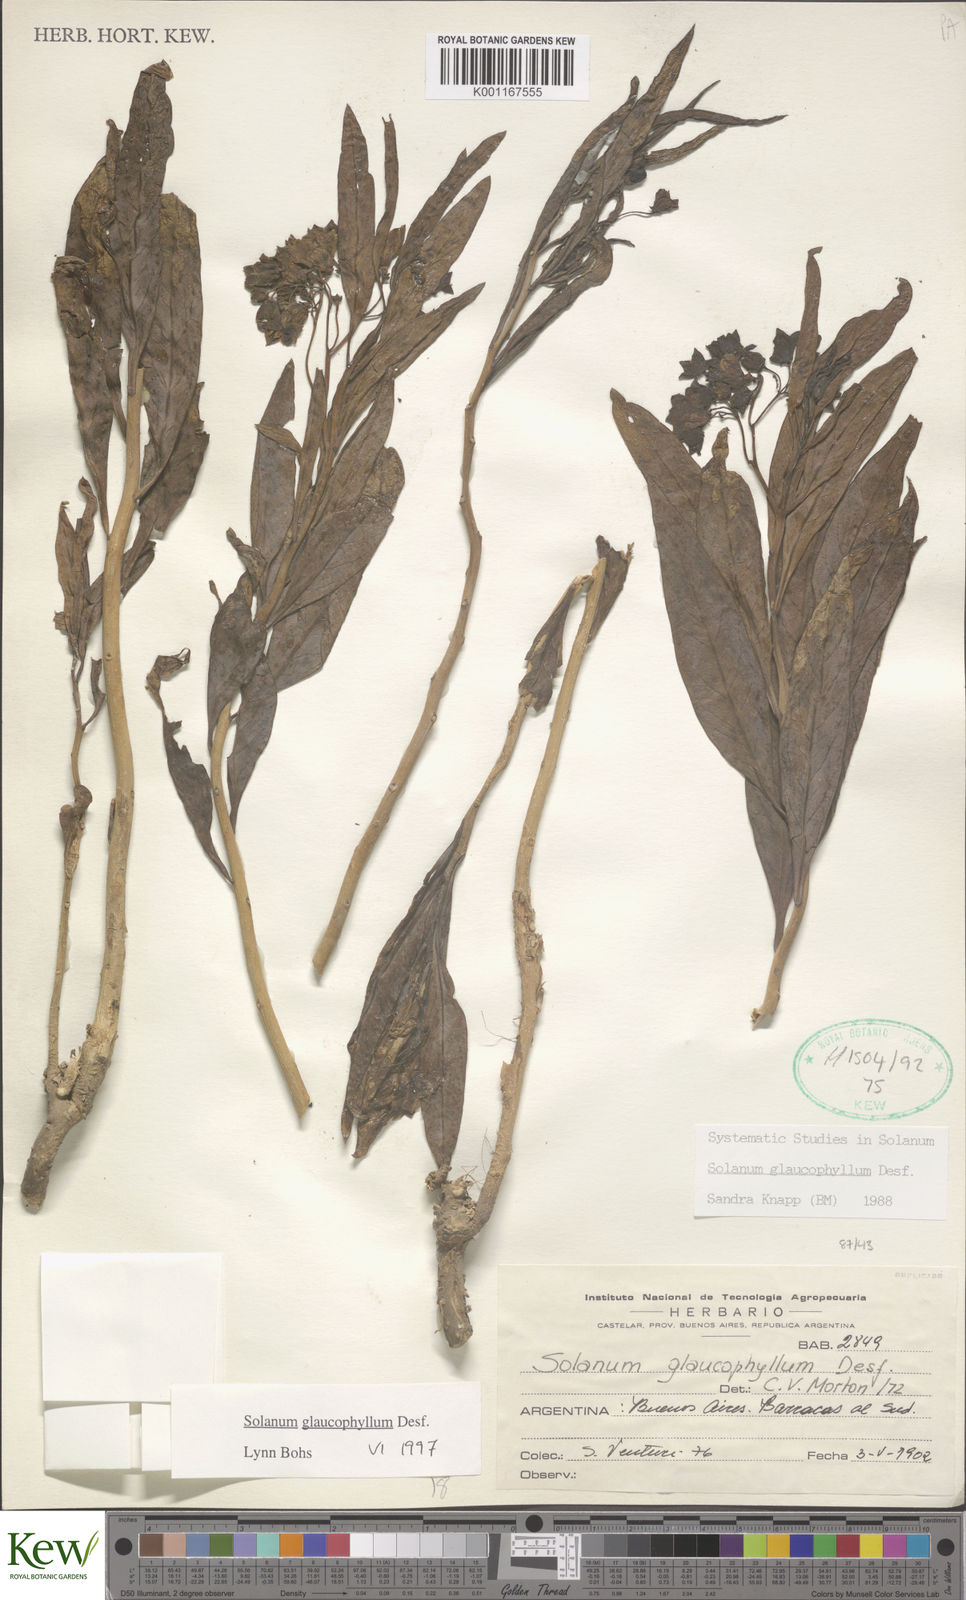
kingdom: Plantae
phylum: Tracheophyta
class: Magnoliopsida
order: Solanales
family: Solanaceae
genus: Solanum
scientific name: Solanum glaucophyllum
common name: Waxyleaf nightshade
